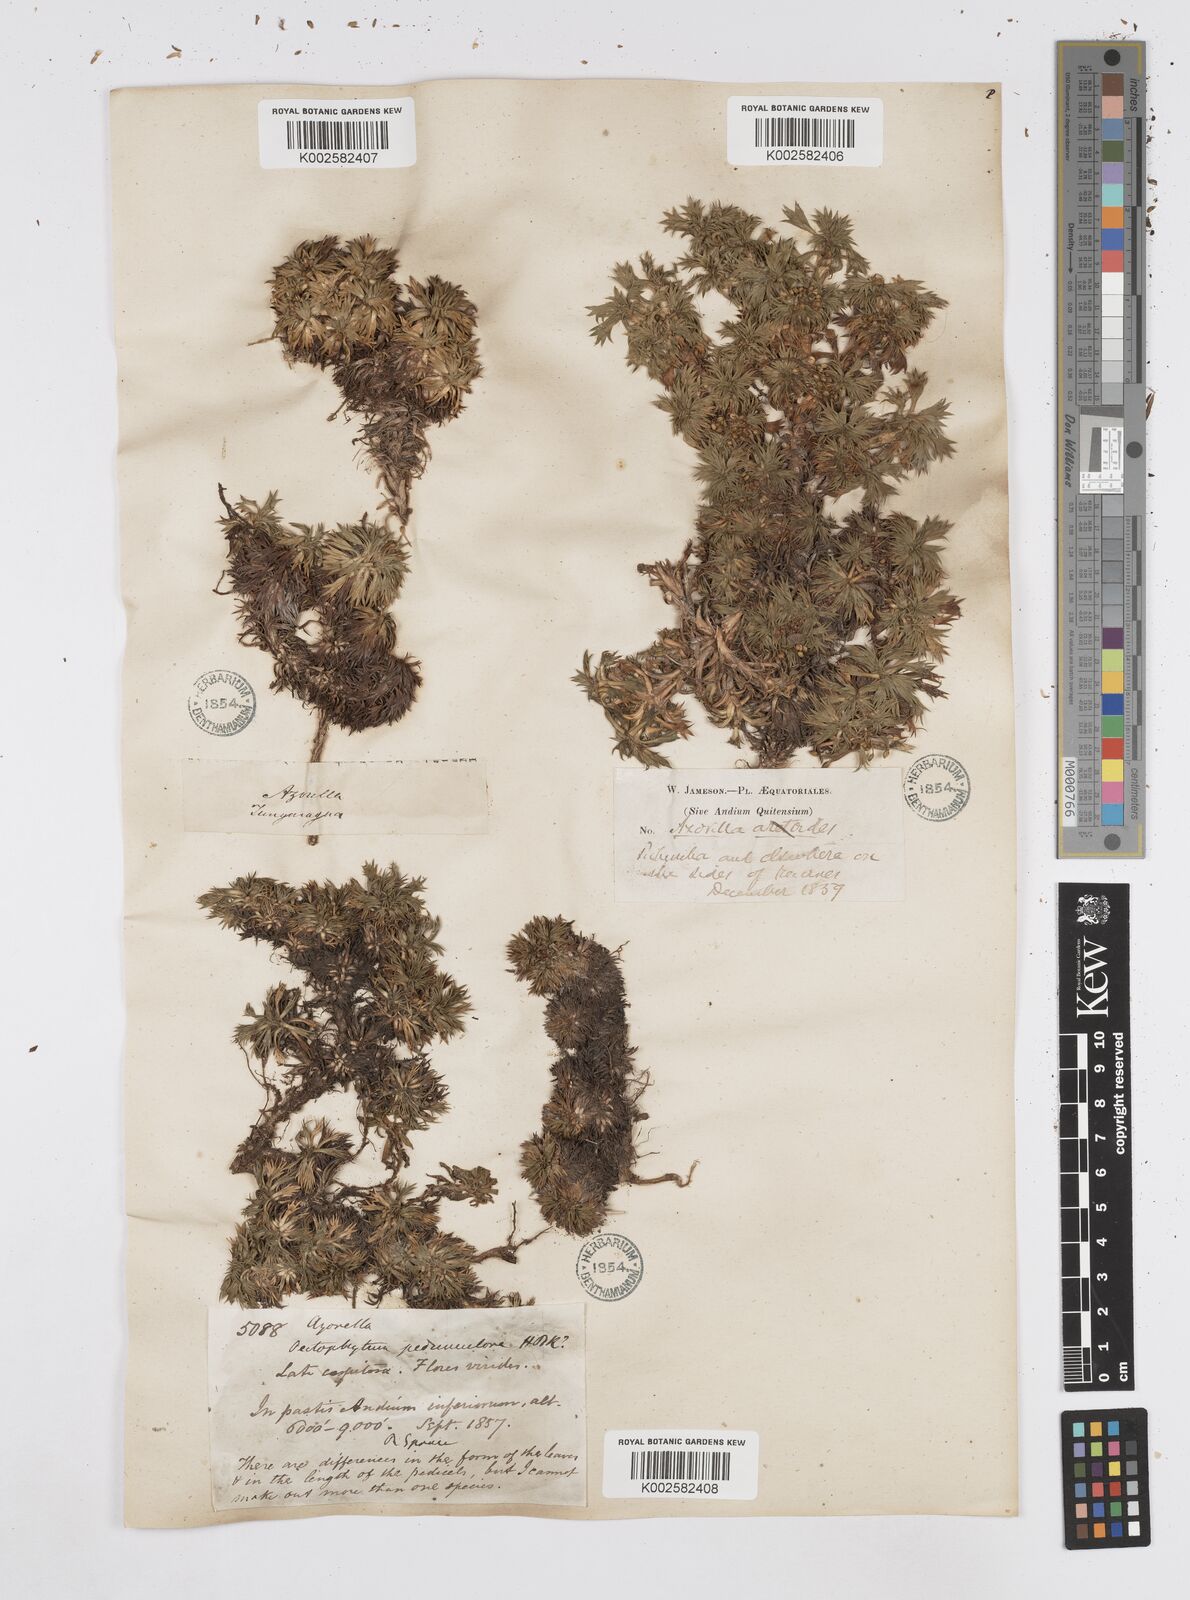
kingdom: Plantae
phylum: Tracheophyta
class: Magnoliopsida
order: Apiales
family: Apiaceae
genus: Azorella
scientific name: Azorella pedunculata
